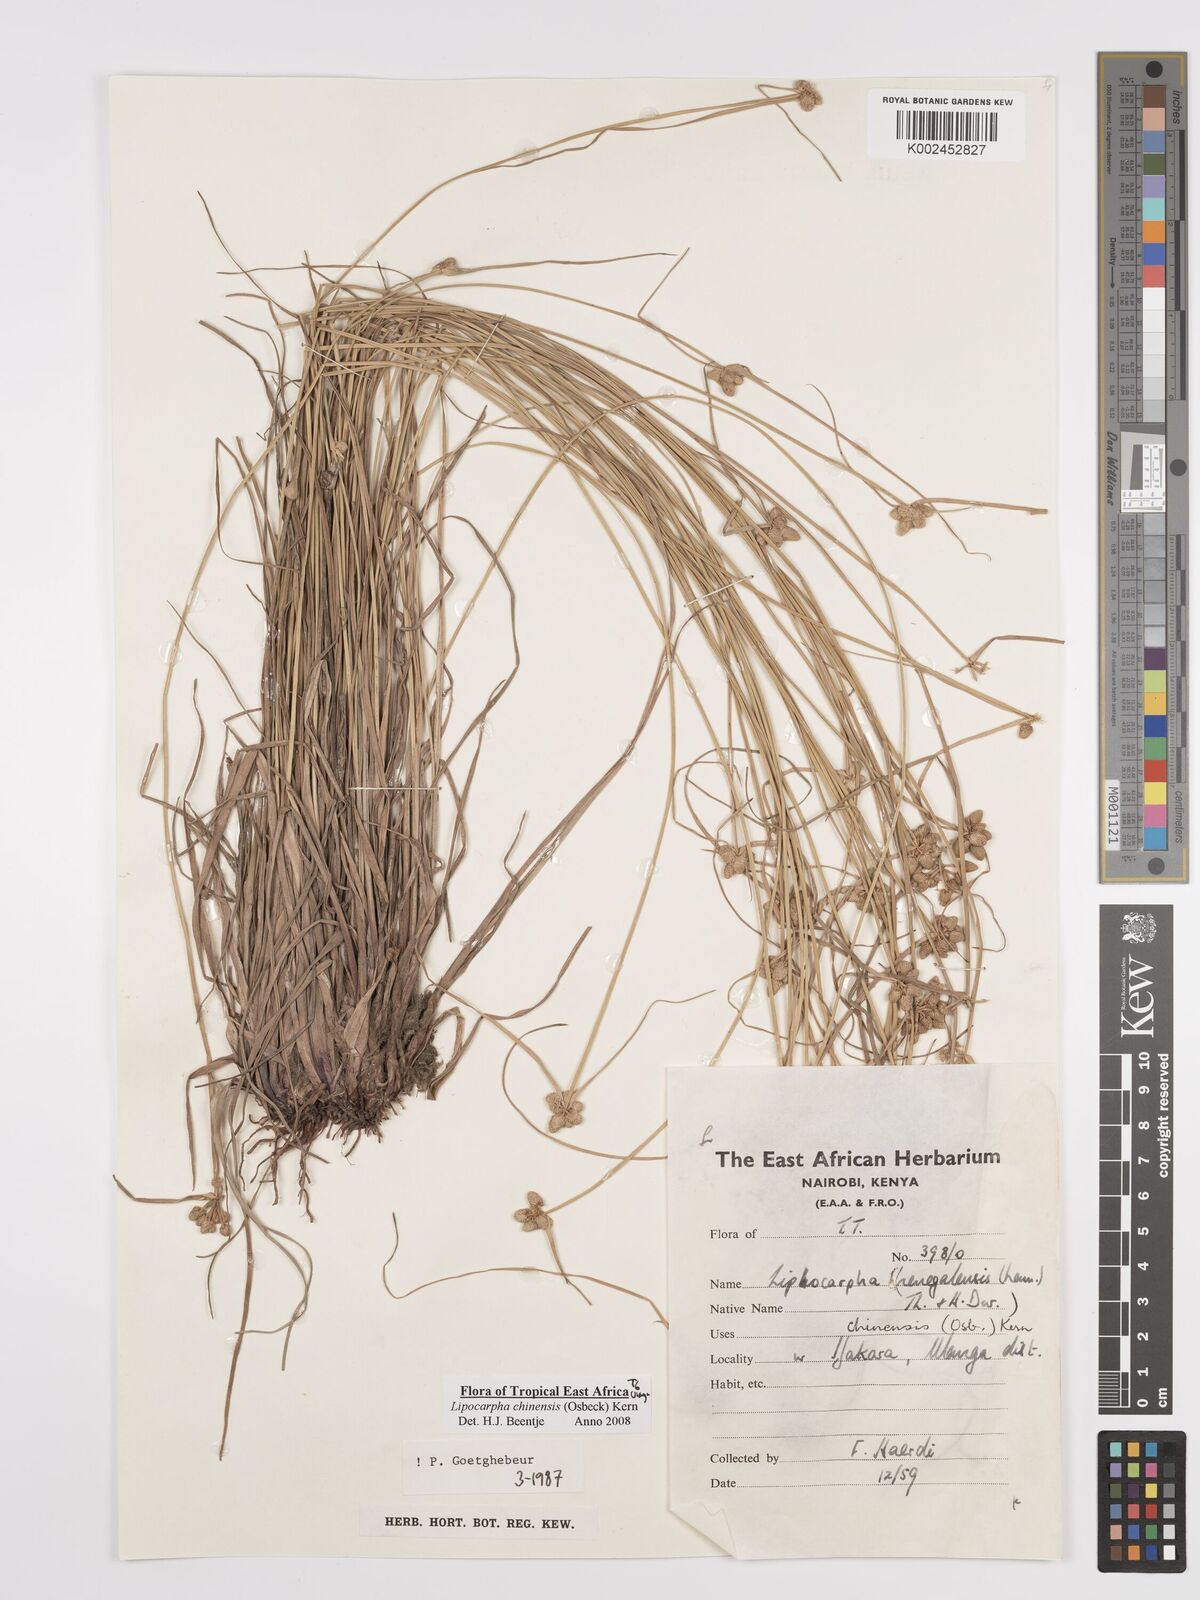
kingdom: Plantae
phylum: Tracheophyta
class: Liliopsida
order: Poales
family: Cyperaceae
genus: Cyperus
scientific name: Cyperus
